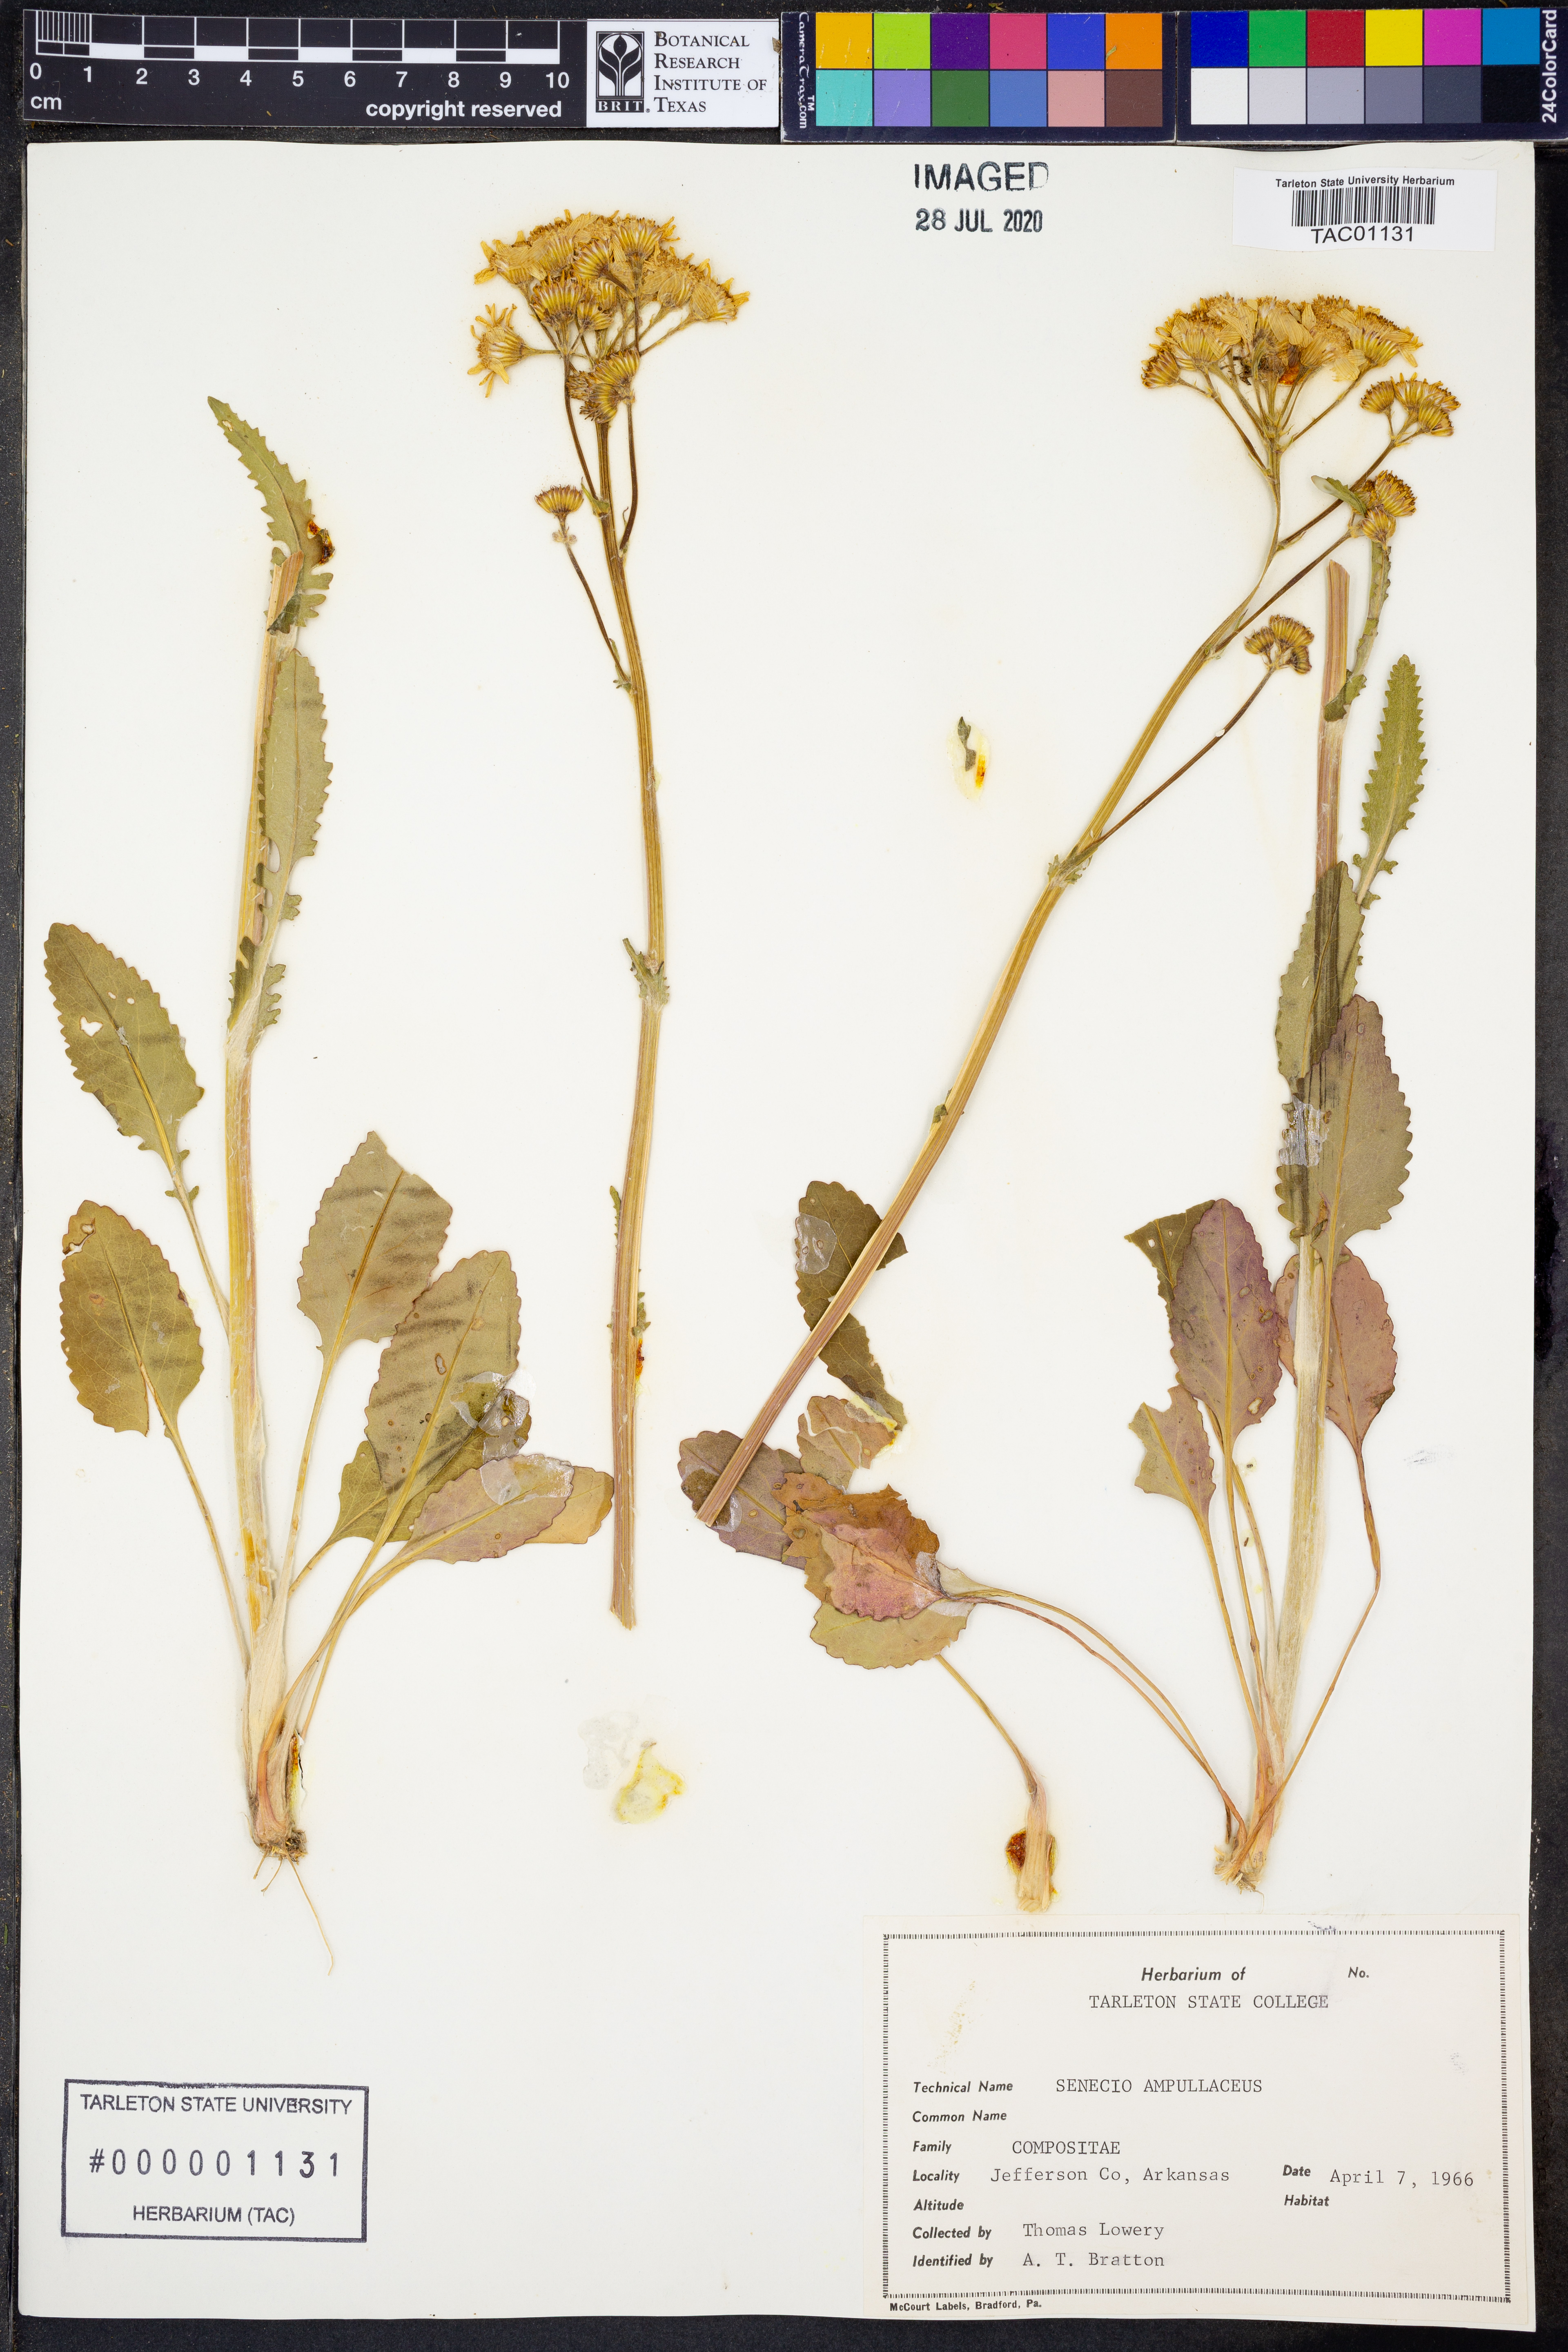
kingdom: Plantae
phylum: Tracheophyta
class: Magnoliopsida
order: Asterales
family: Asteraceae
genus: Senecio
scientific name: Senecio ampullaceus
